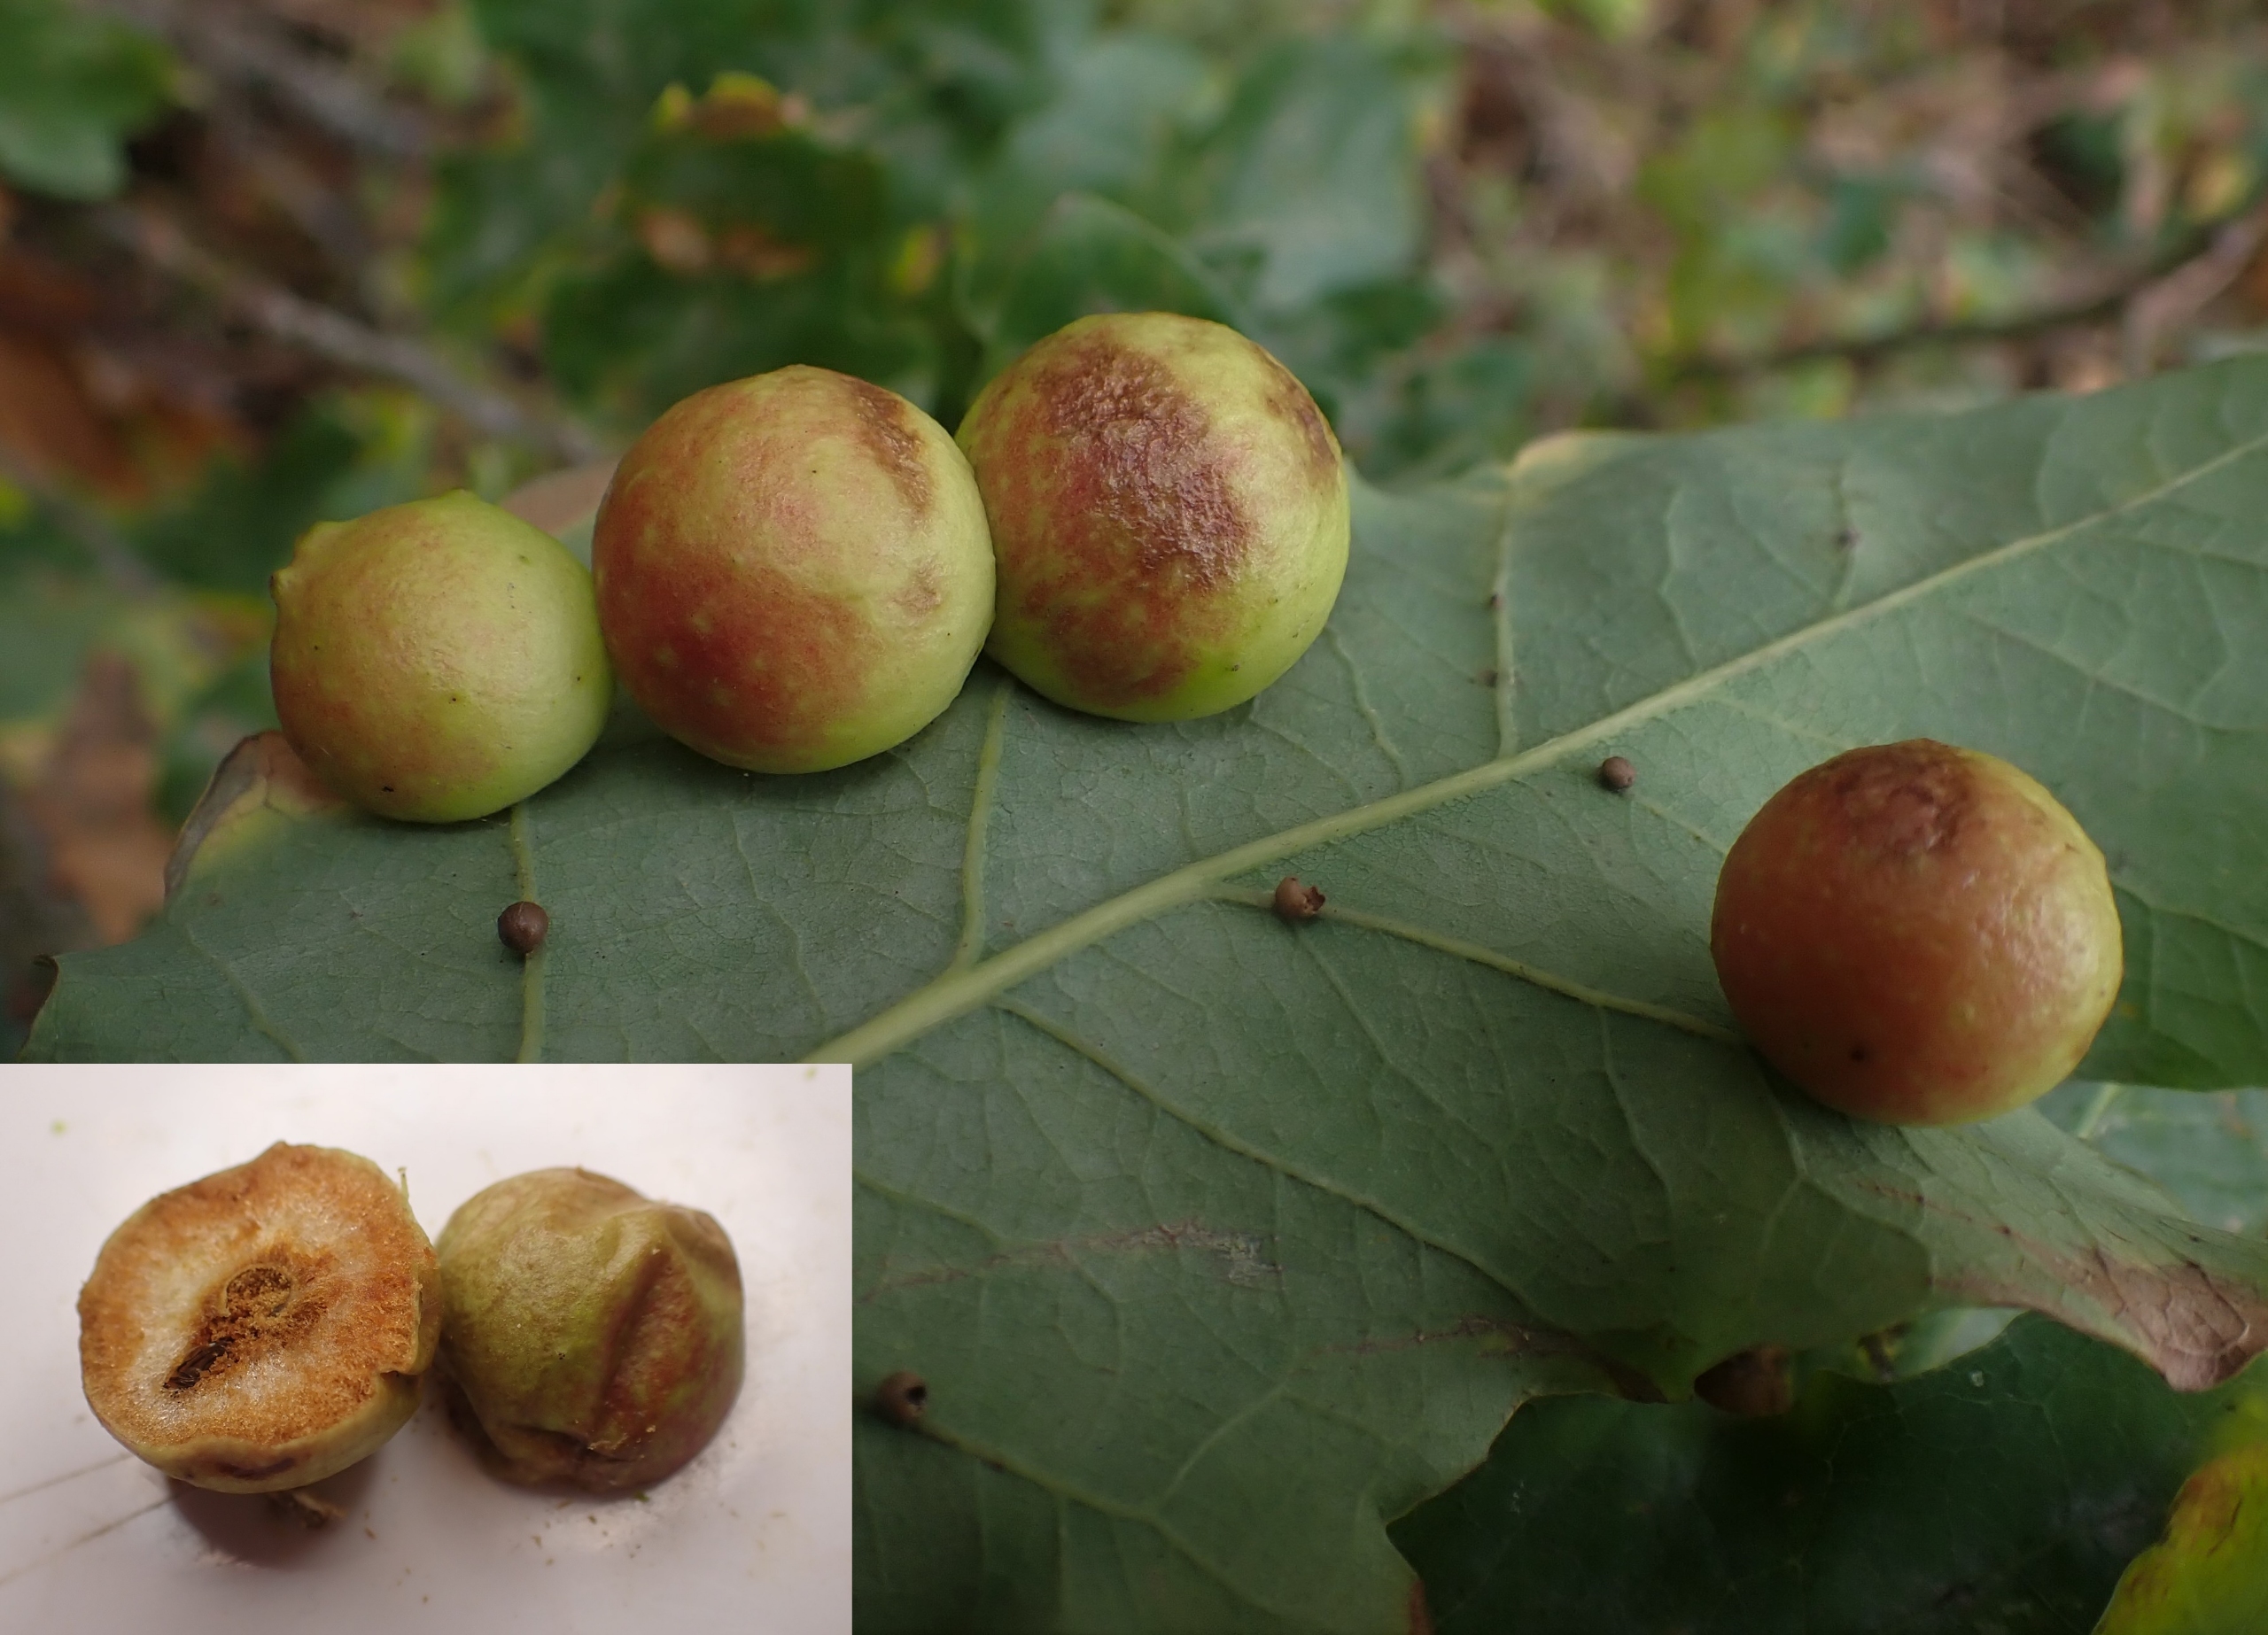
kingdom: Animalia
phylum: Arthropoda
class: Insecta
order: Hymenoptera
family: Cynipidae
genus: Cynips
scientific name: Cynips quercusfolii
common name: Stor galæblehveps
